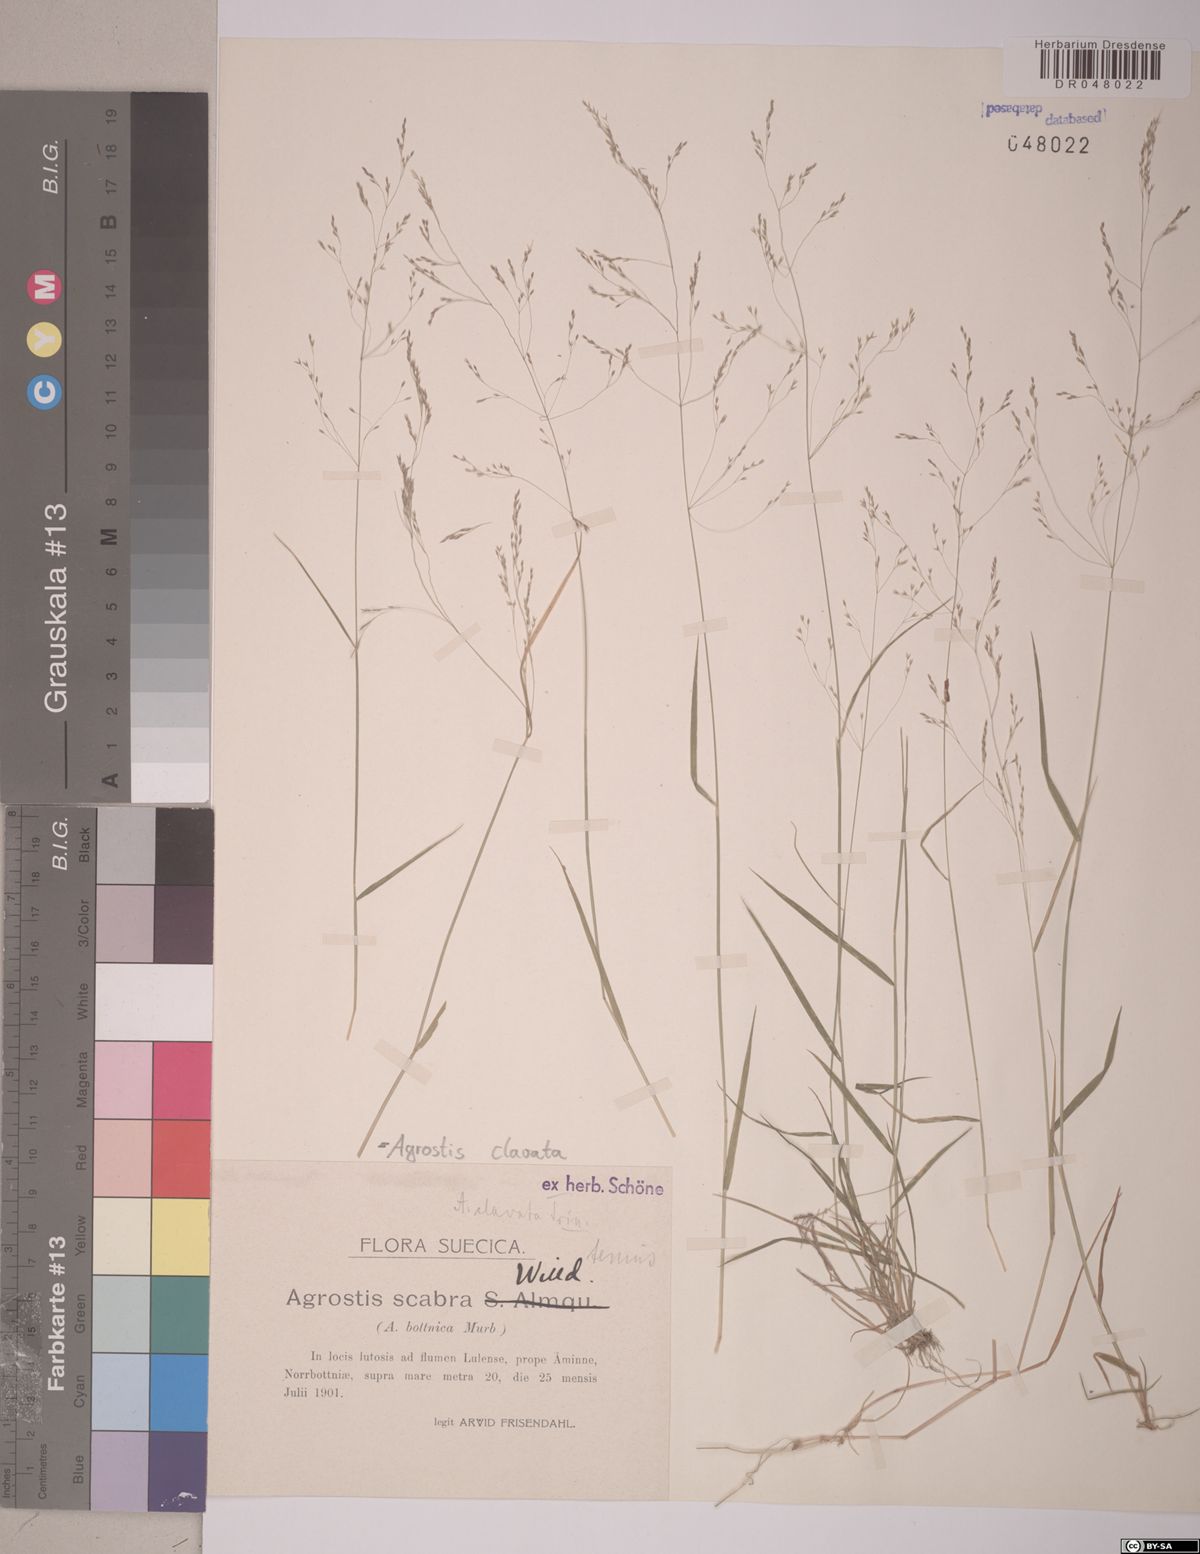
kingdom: Plantae
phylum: Tracheophyta
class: Liliopsida
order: Poales
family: Poaceae
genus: Agrostis
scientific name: Agrostis clavata
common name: Clavate bent
